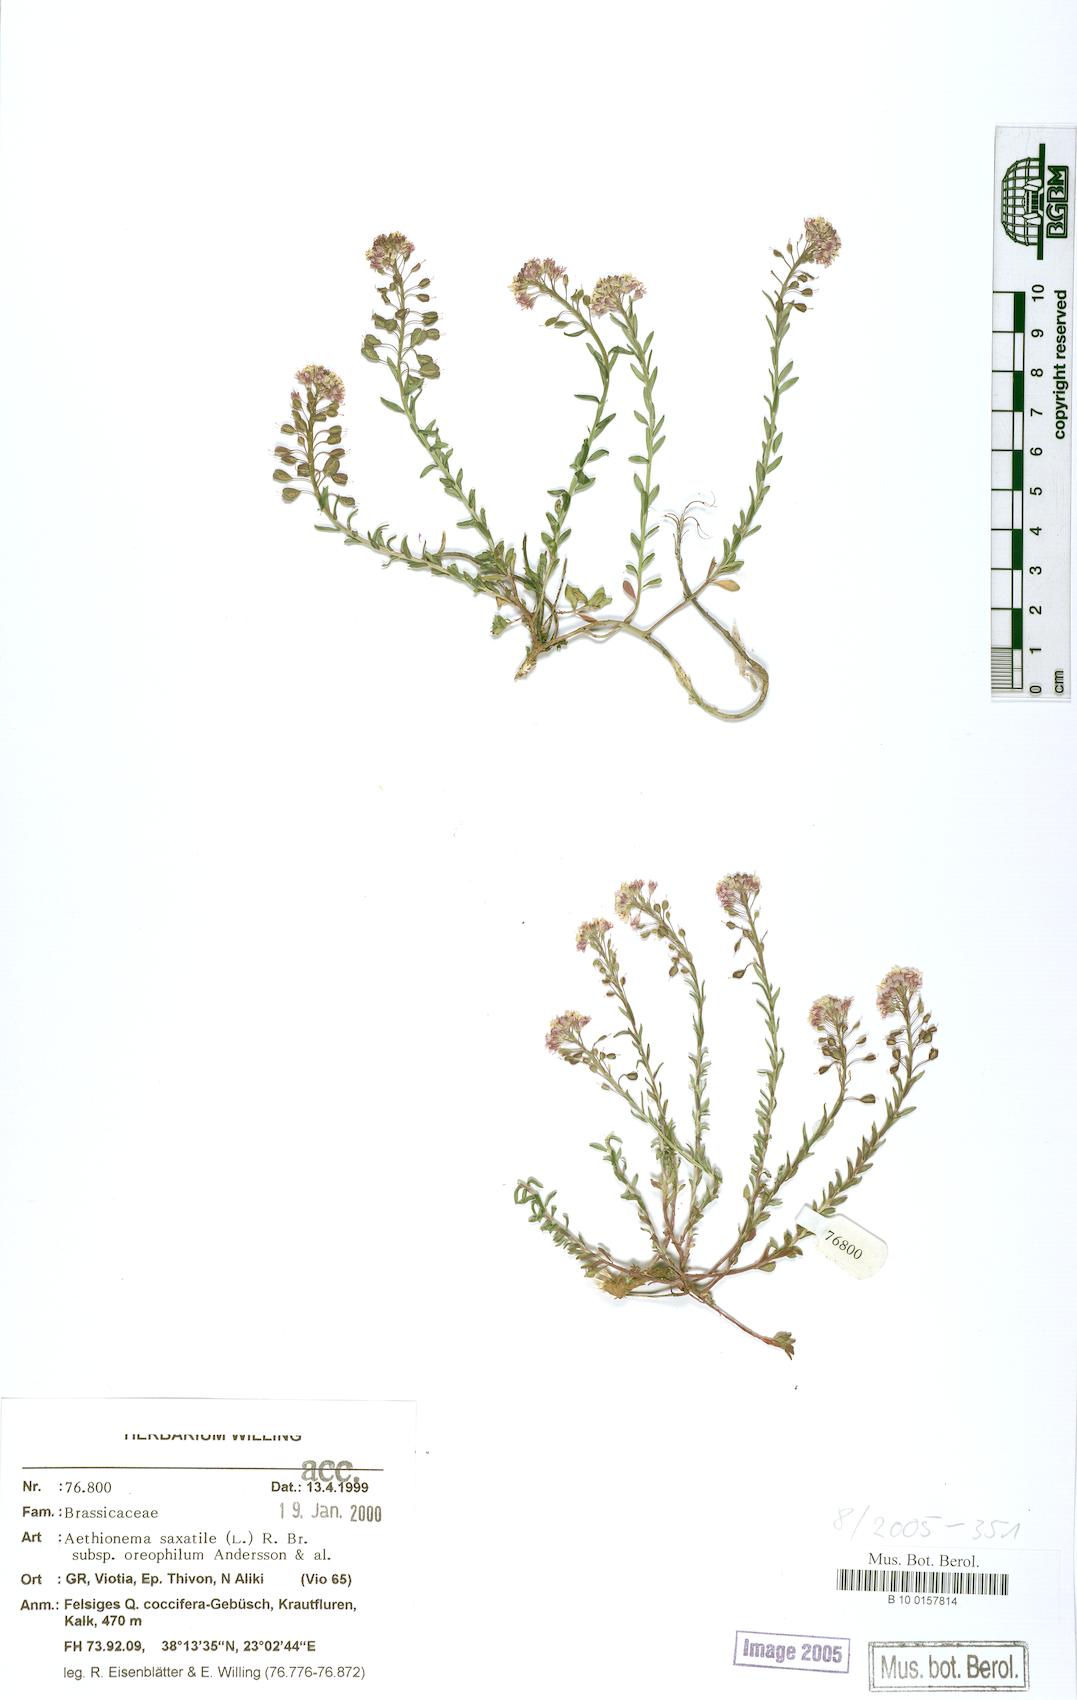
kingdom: Plantae
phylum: Tracheophyta
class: Magnoliopsida
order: Brassicales
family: Brassicaceae
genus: Aethionema
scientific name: Aethionema saxatile
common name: Burnt candytuft
